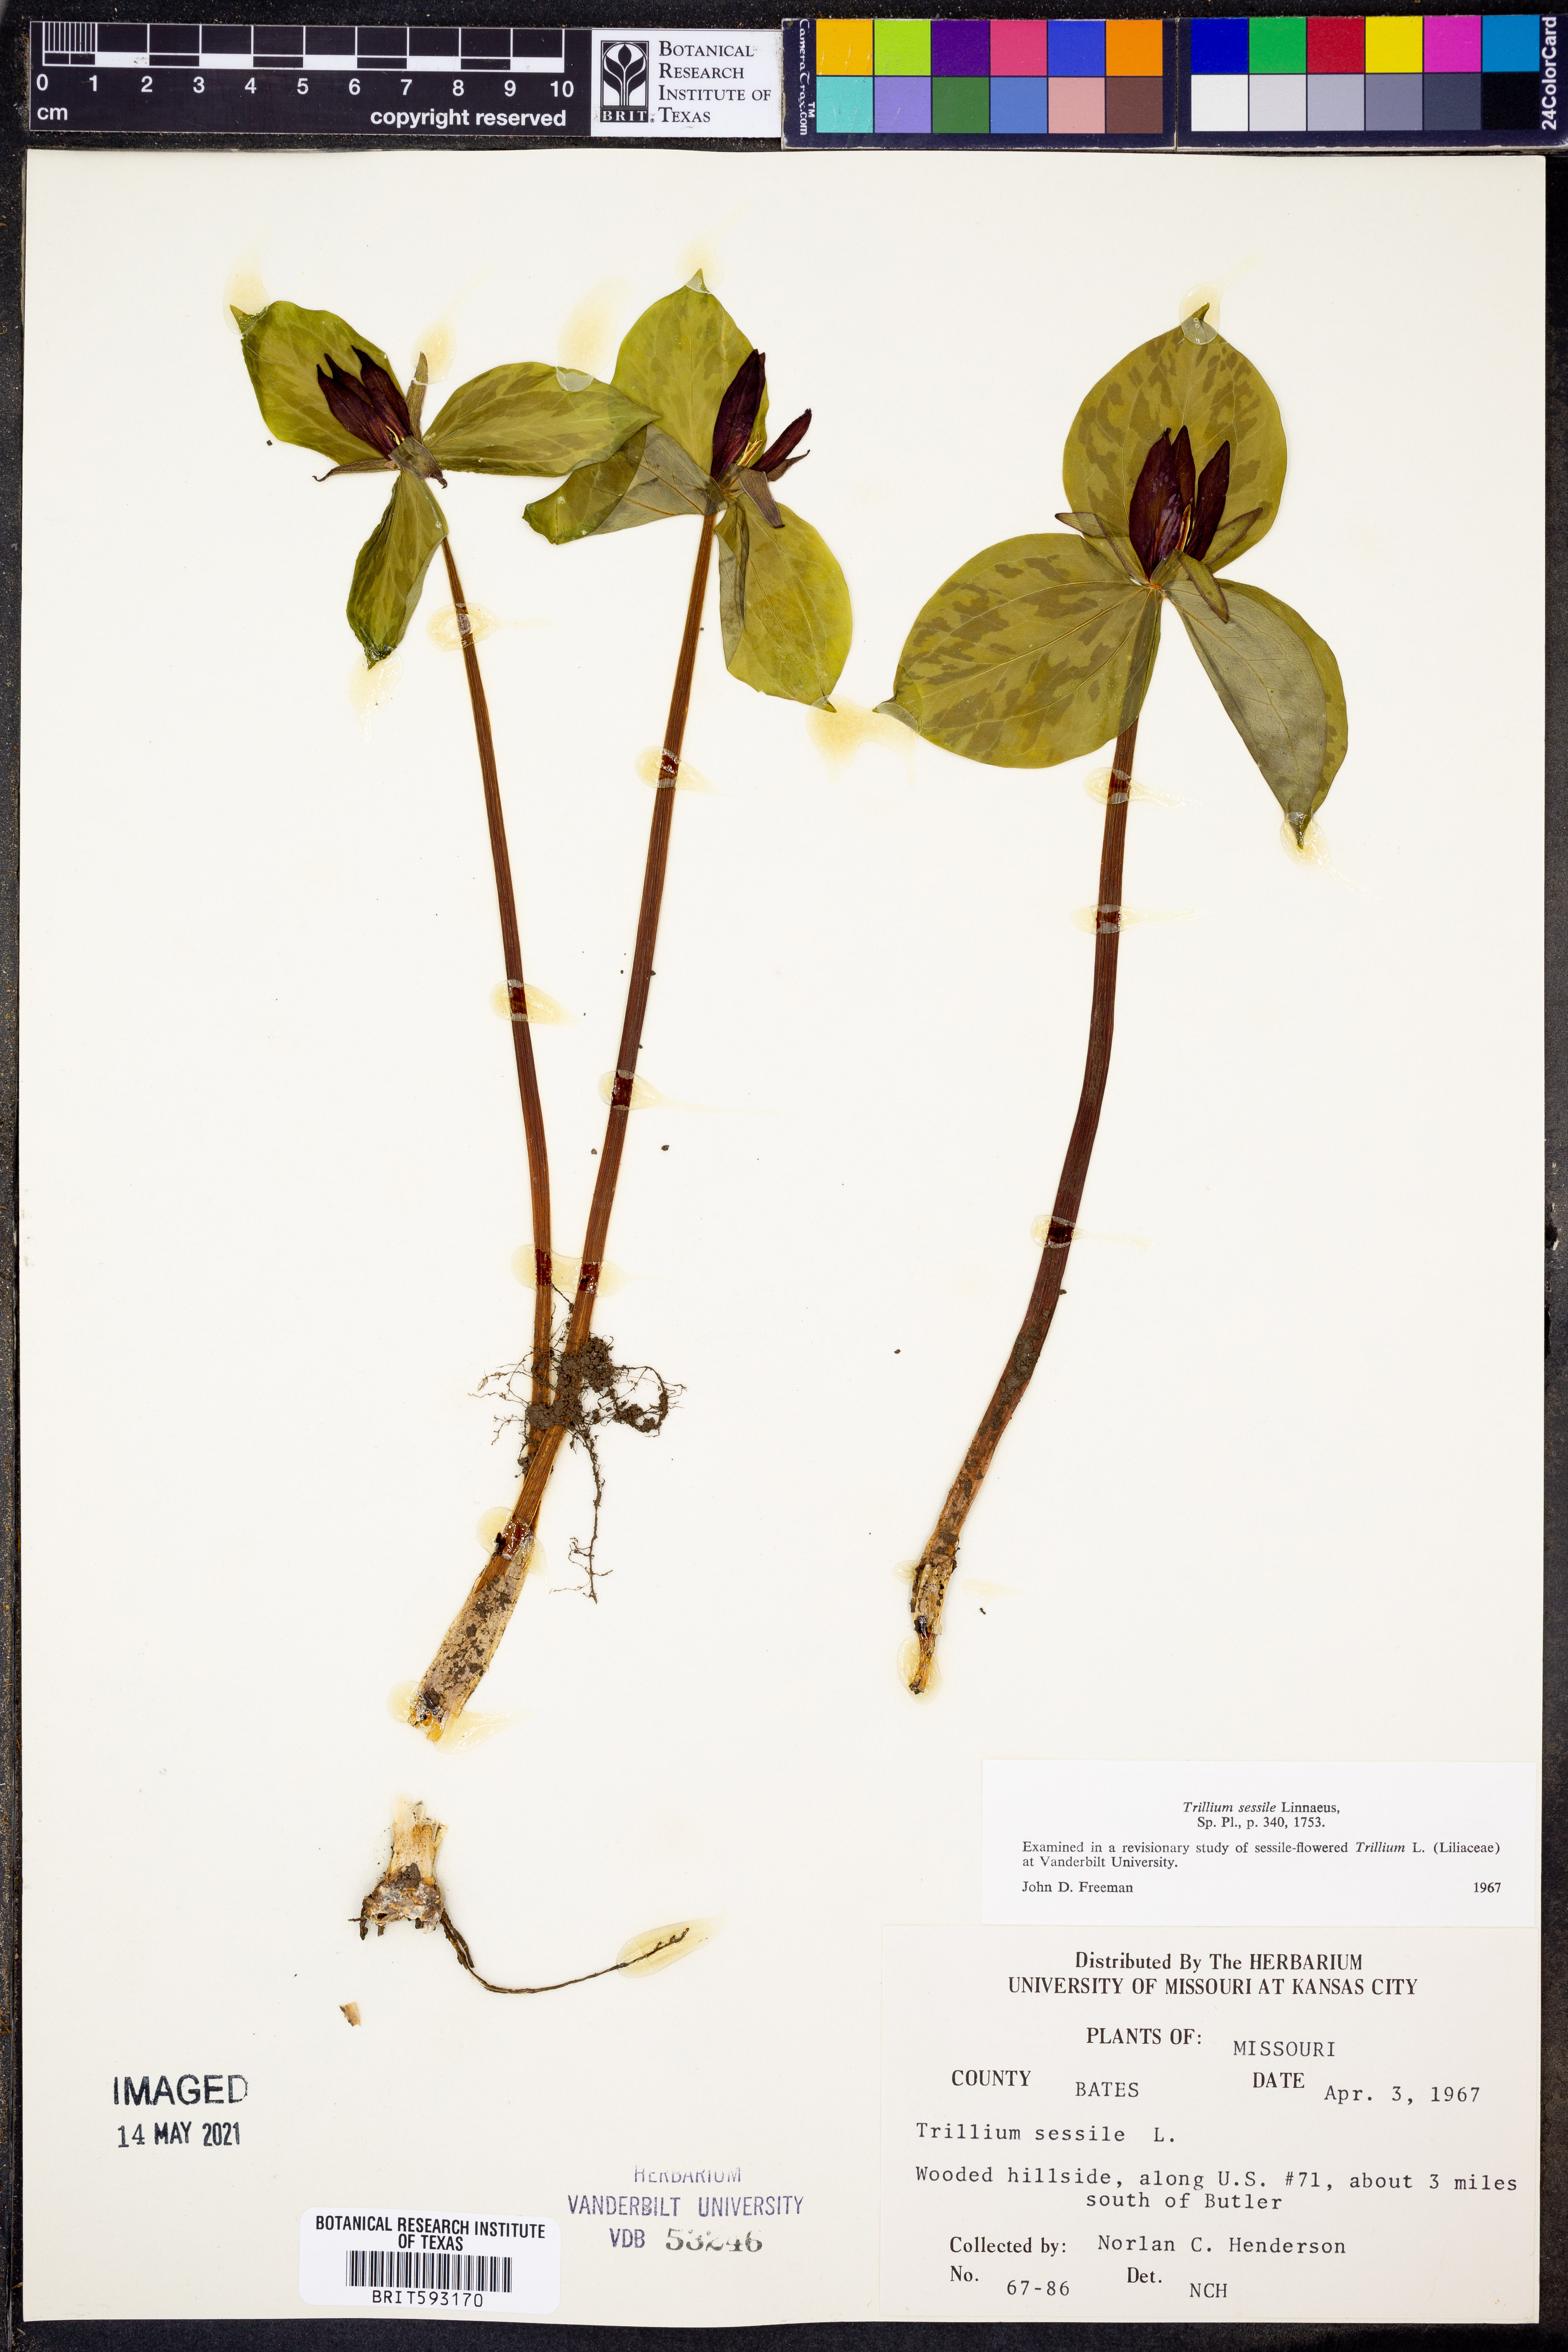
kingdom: Plantae
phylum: Tracheophyta
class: Liliopsida
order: Liliales
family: Melanthiaceae
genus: Trillium
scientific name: Trillium sessile
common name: Sessile trillium
